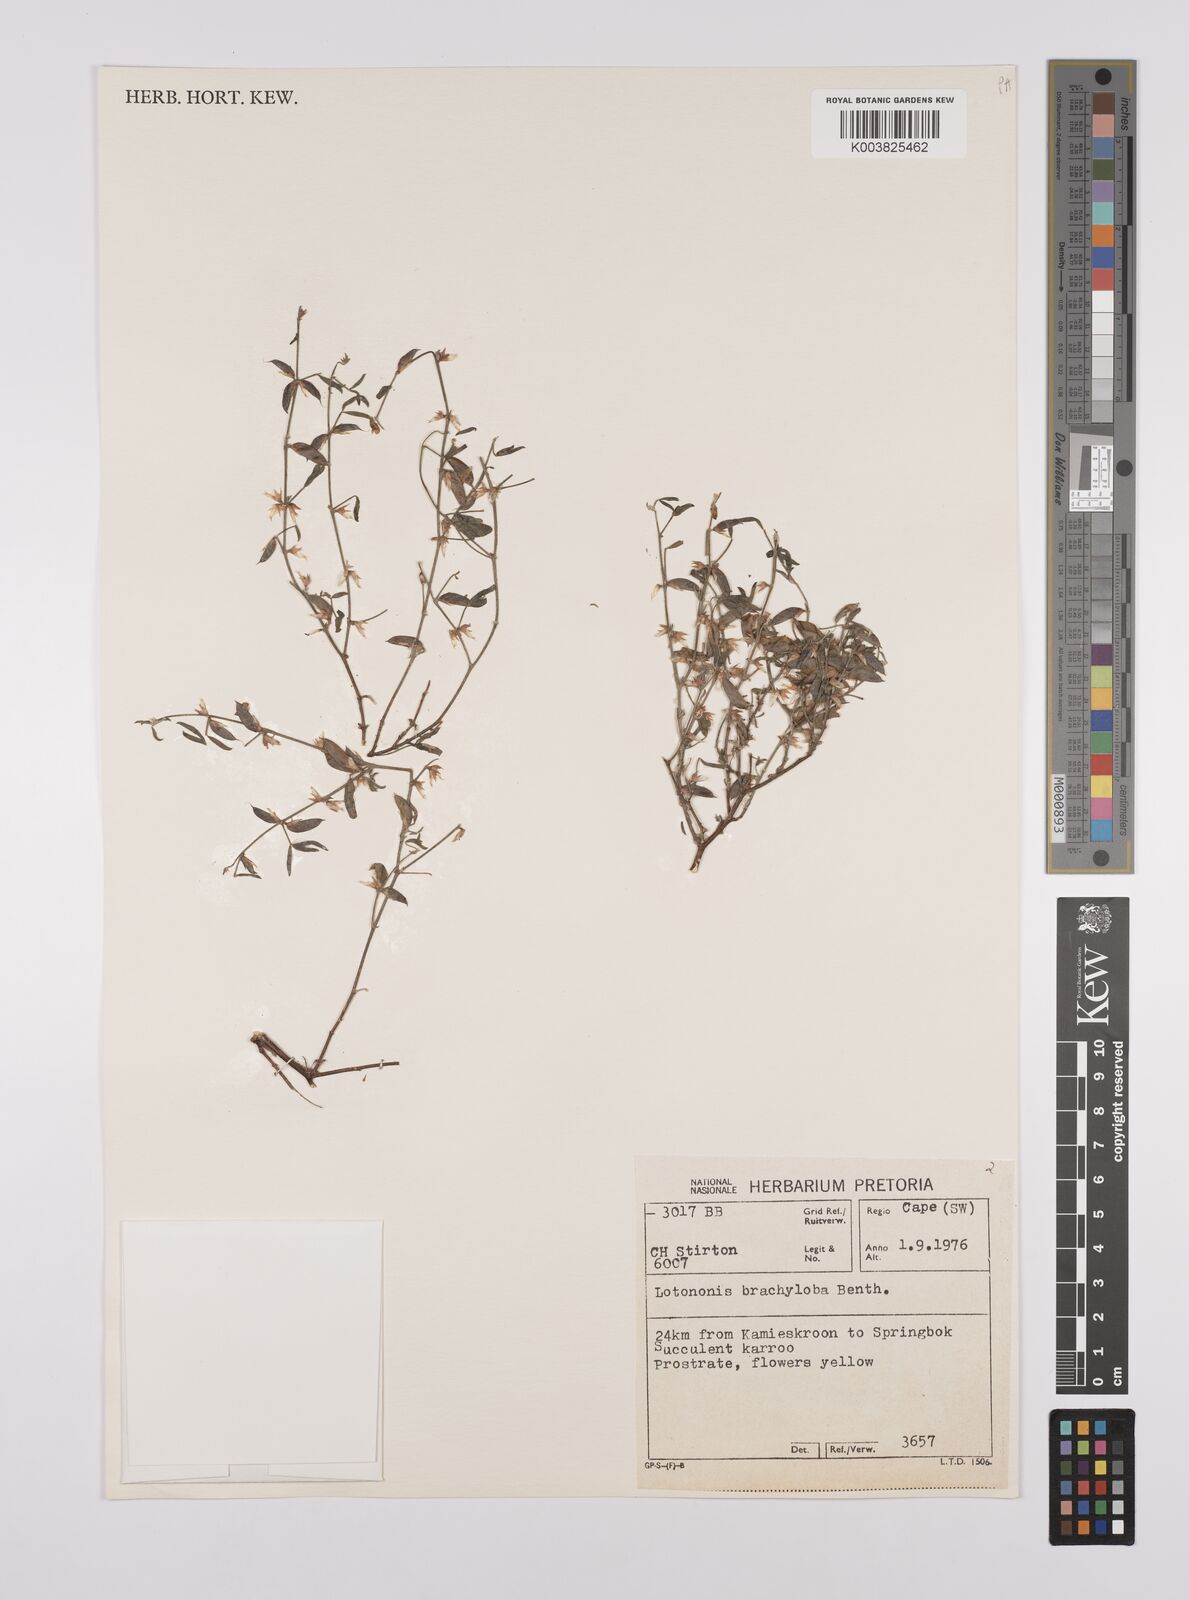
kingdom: Plantae
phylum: Tracheophyta
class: Magnoliopsida
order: Fabales
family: Fabaceae
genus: Lotononis
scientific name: Lotononis parviflora
